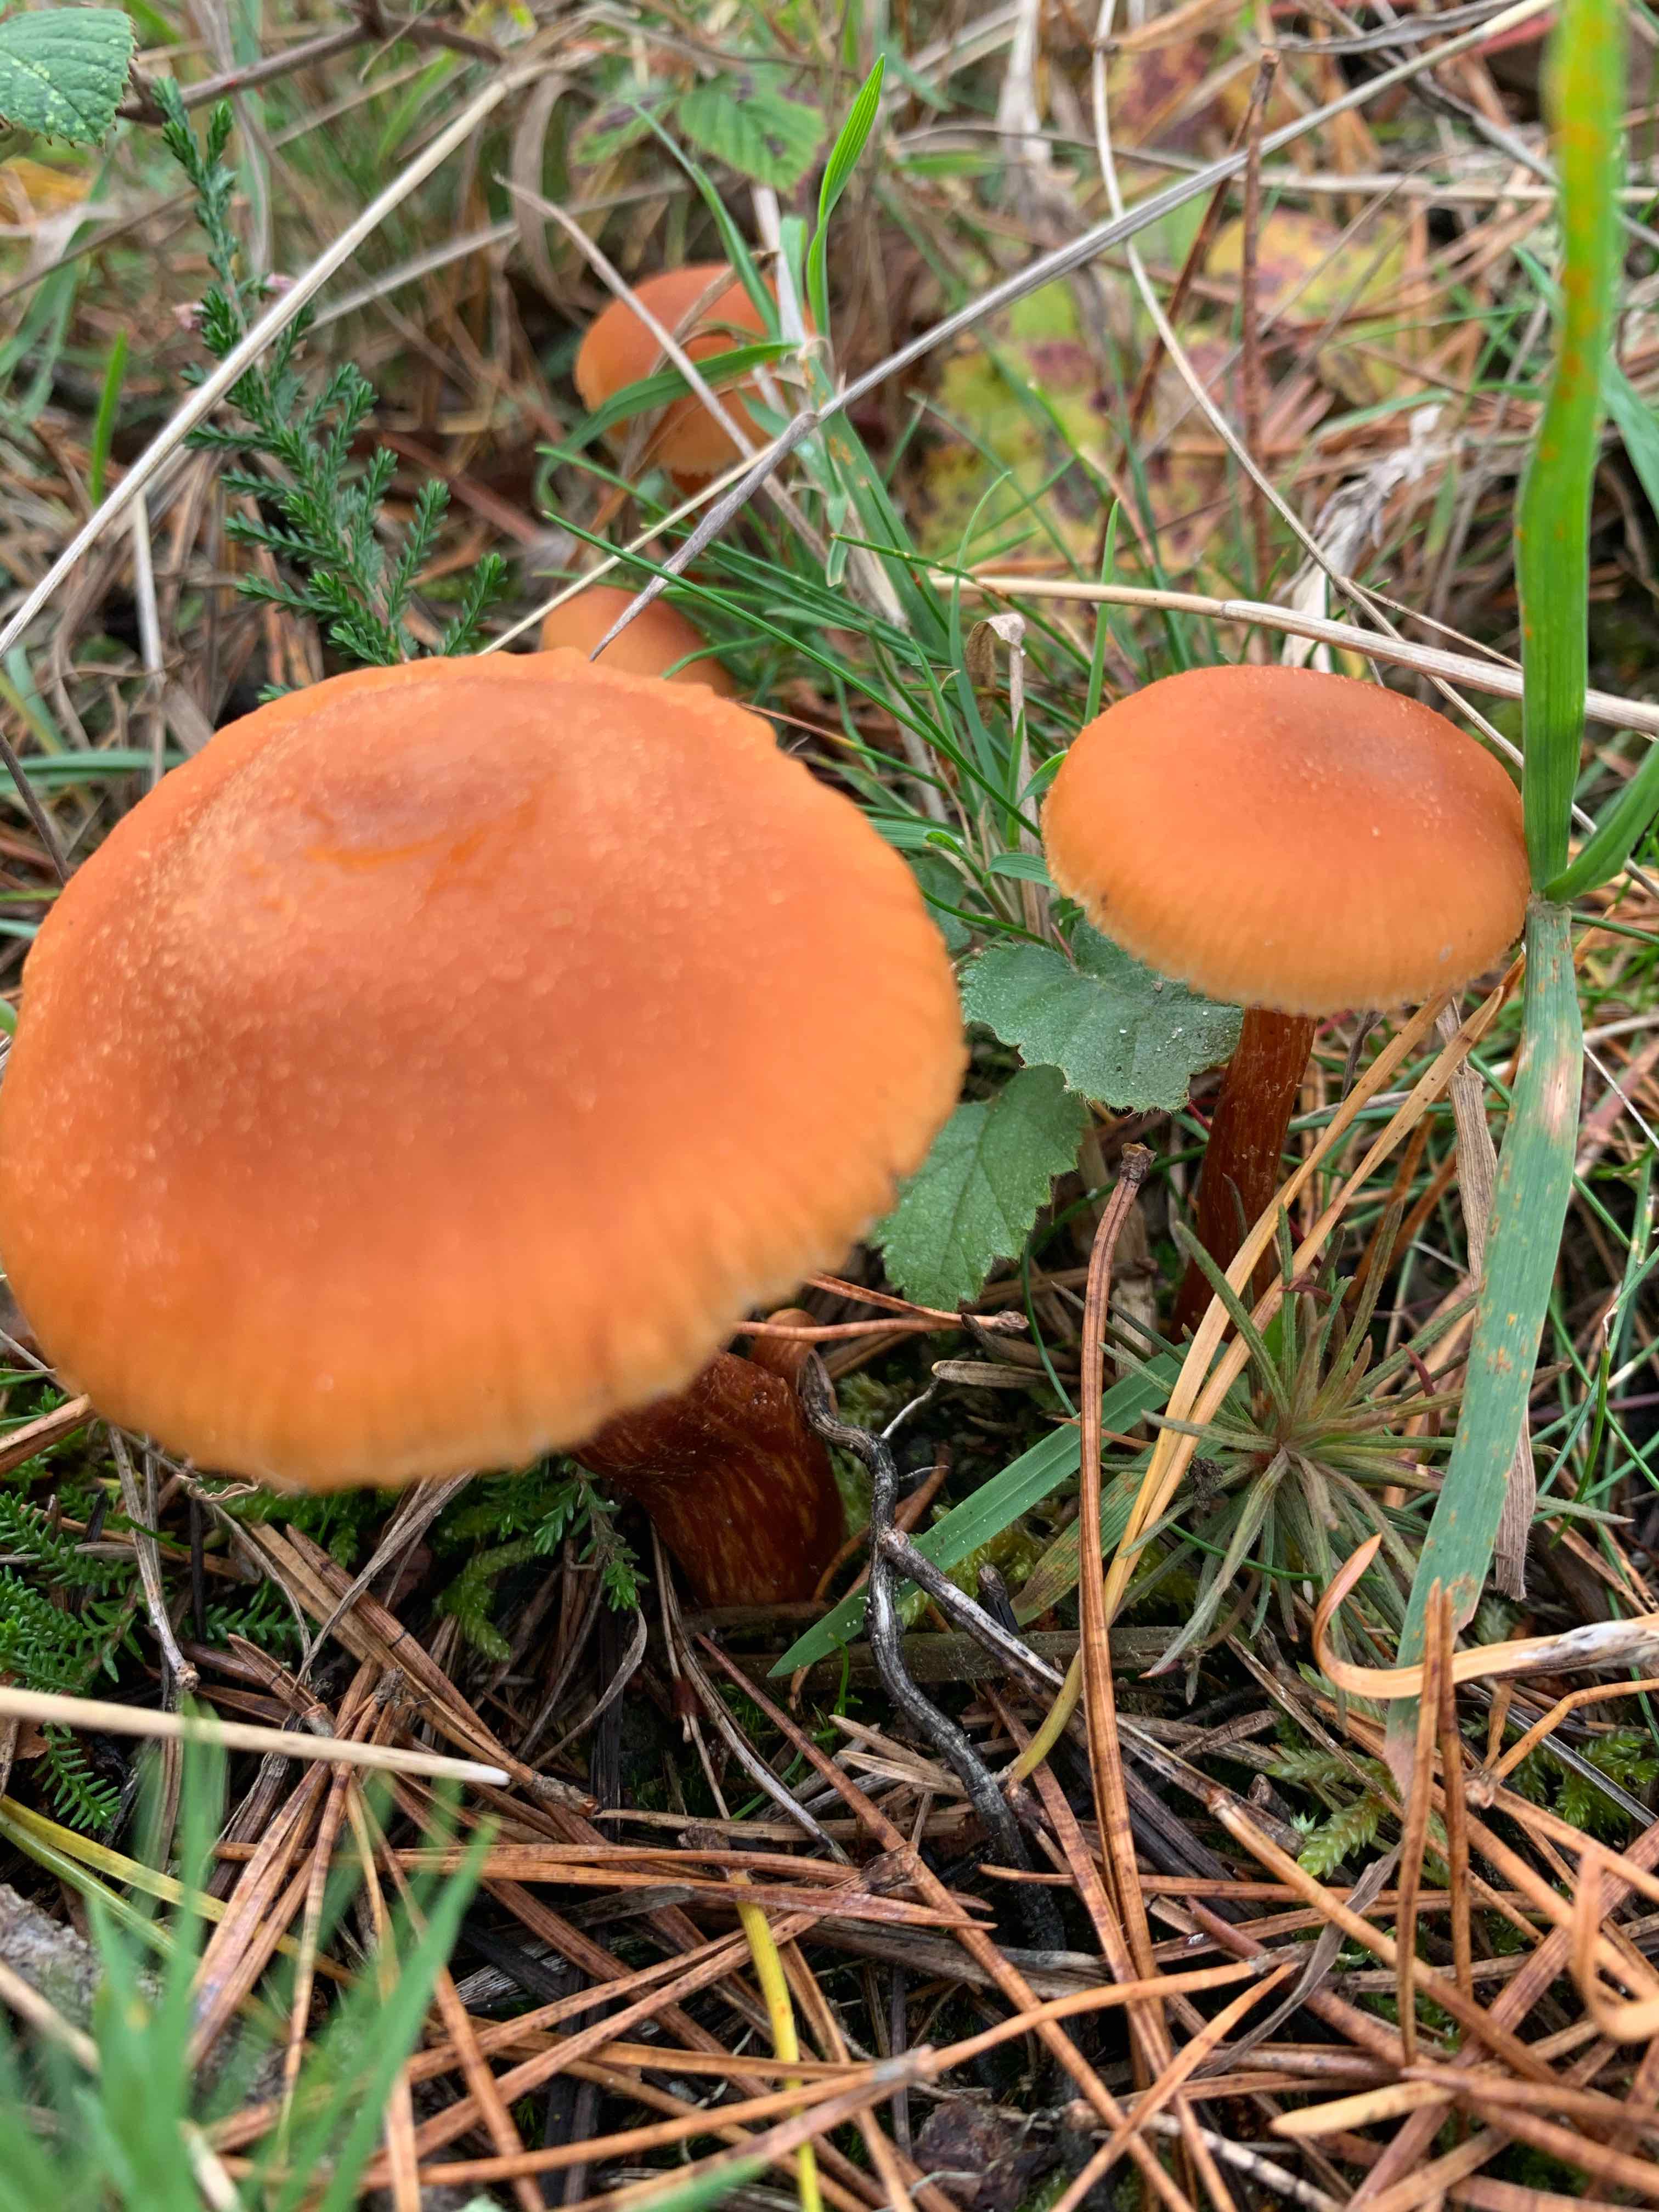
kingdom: Fungi
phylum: Basidiomycota
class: Agaricomycetes
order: Agaricales
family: Hymenogastraceae
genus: Gymnopilus
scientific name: Gymnopilus
